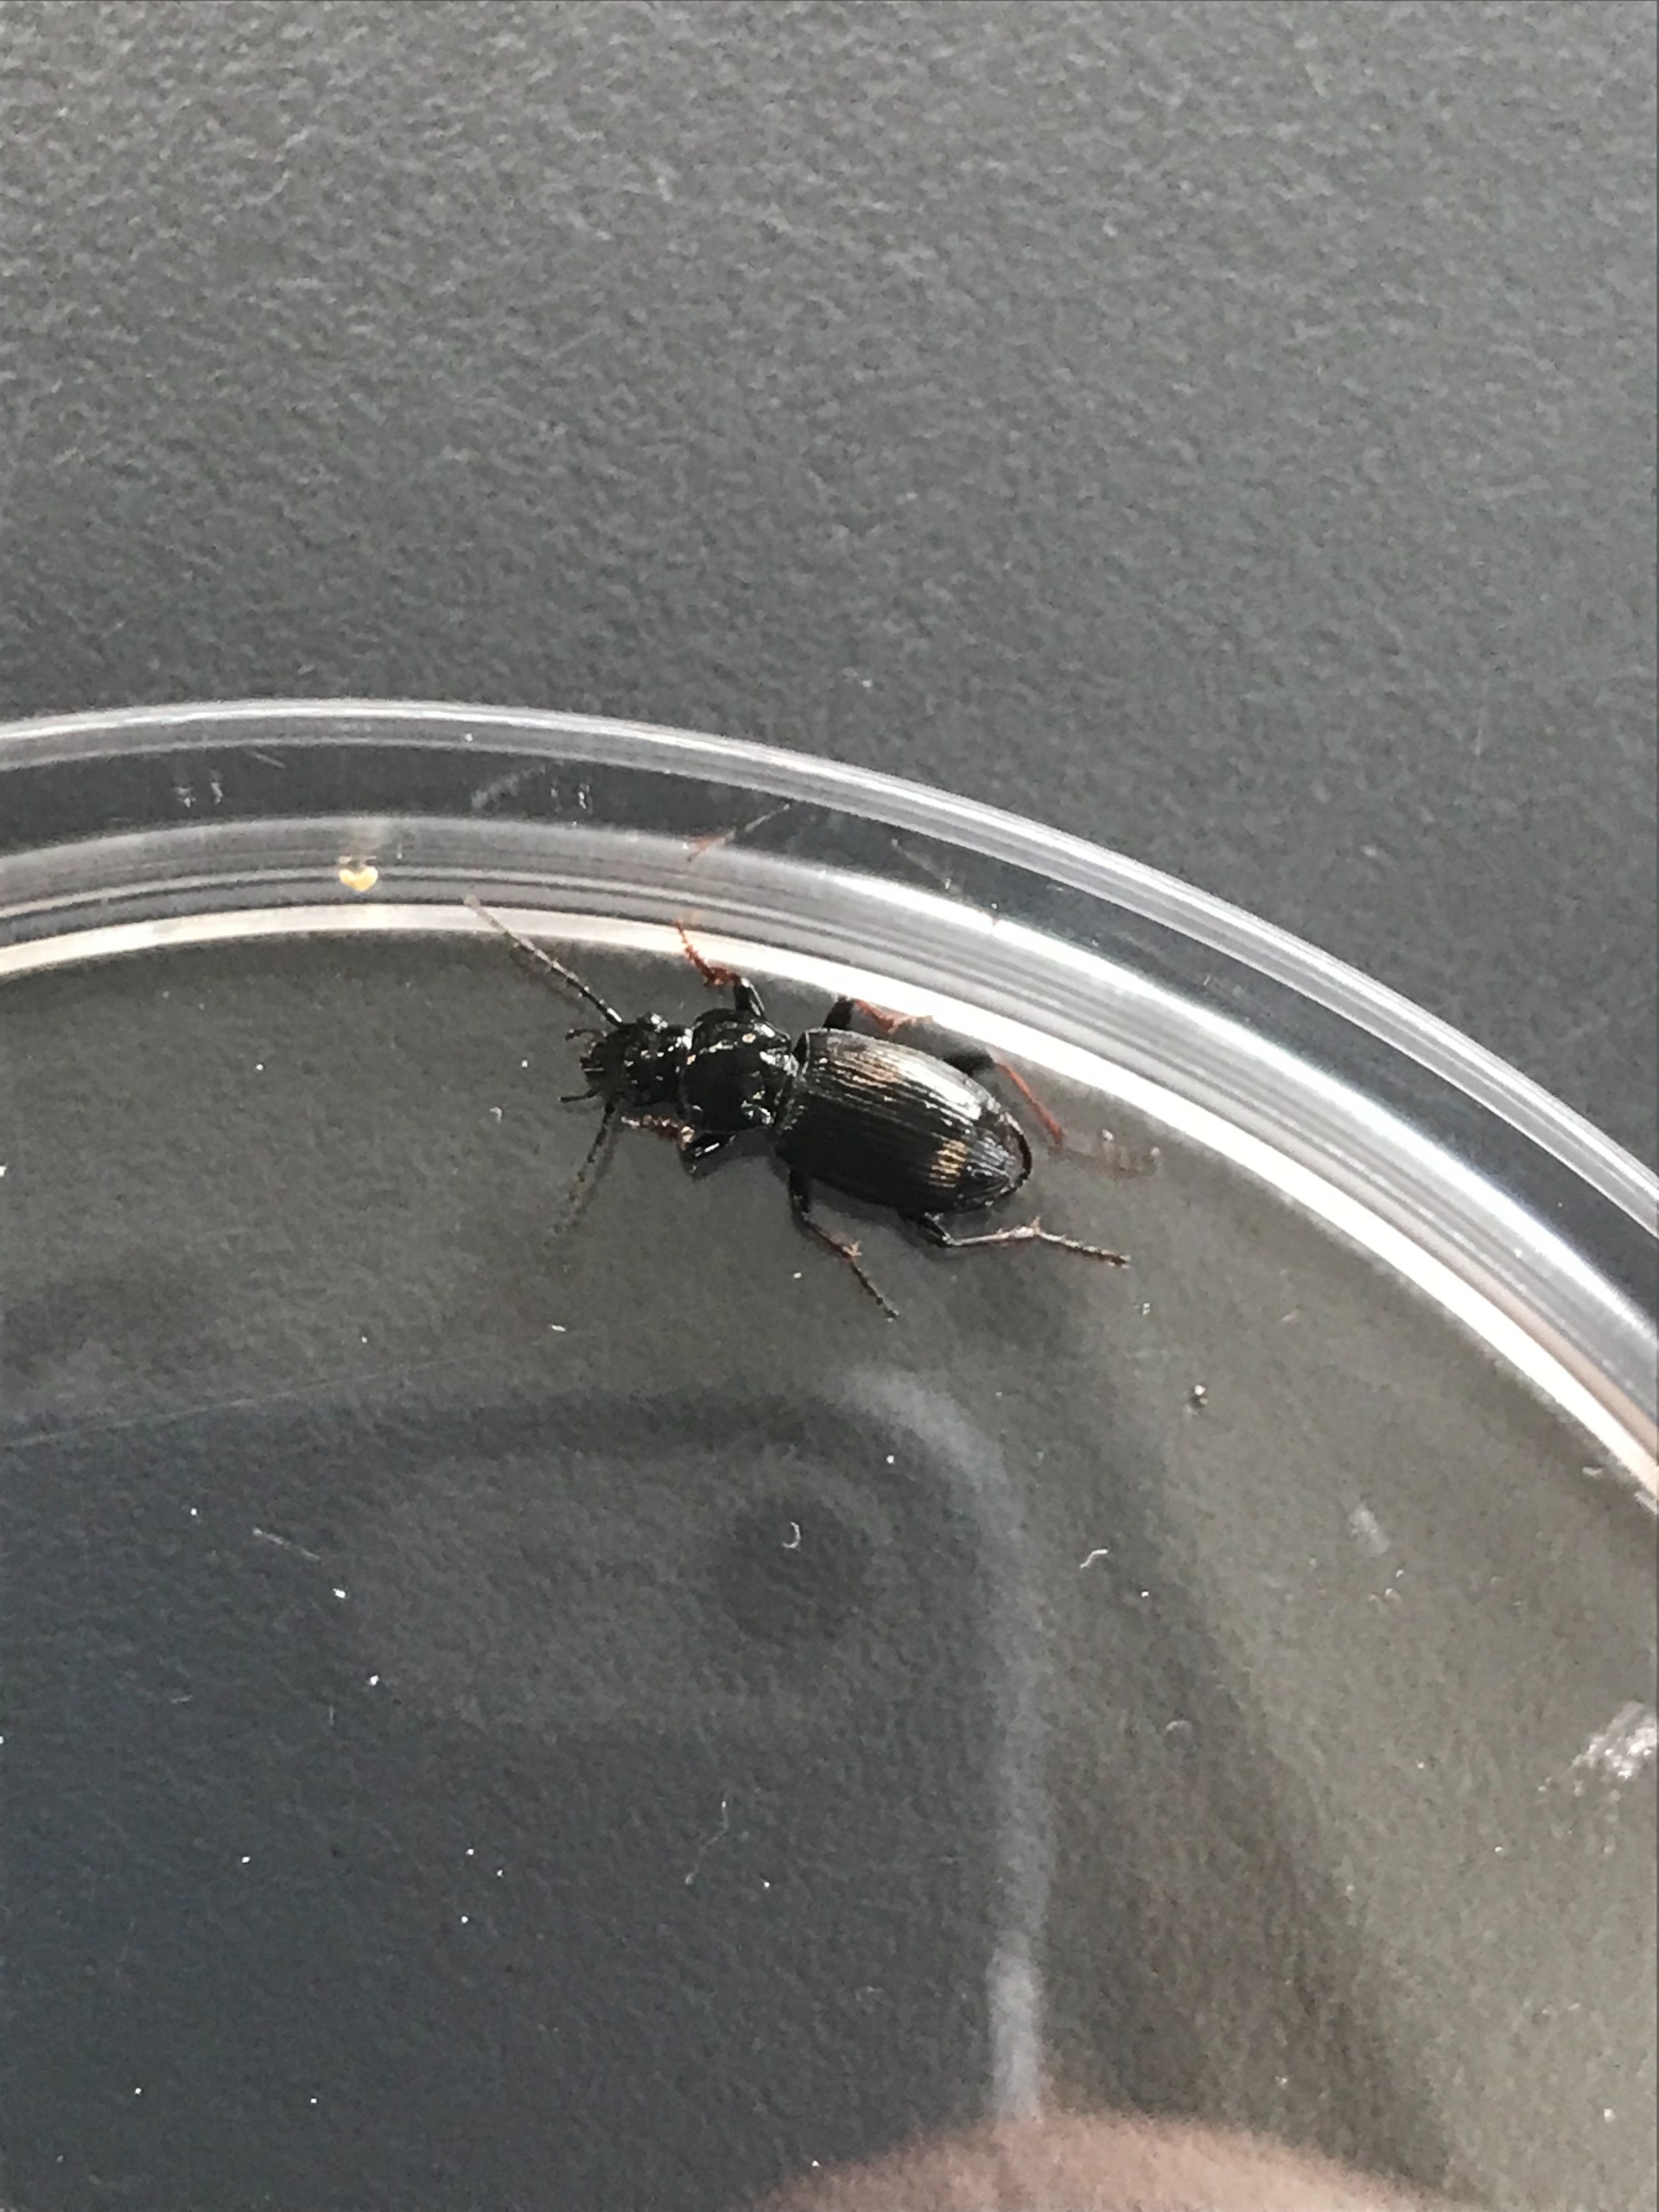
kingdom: Animalia
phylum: Arthropoda
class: Insecta
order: Coleoptera
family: Carabidae
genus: Pterostichus
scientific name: Pterostichus oblongopunctatus
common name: Bronzejordløber
